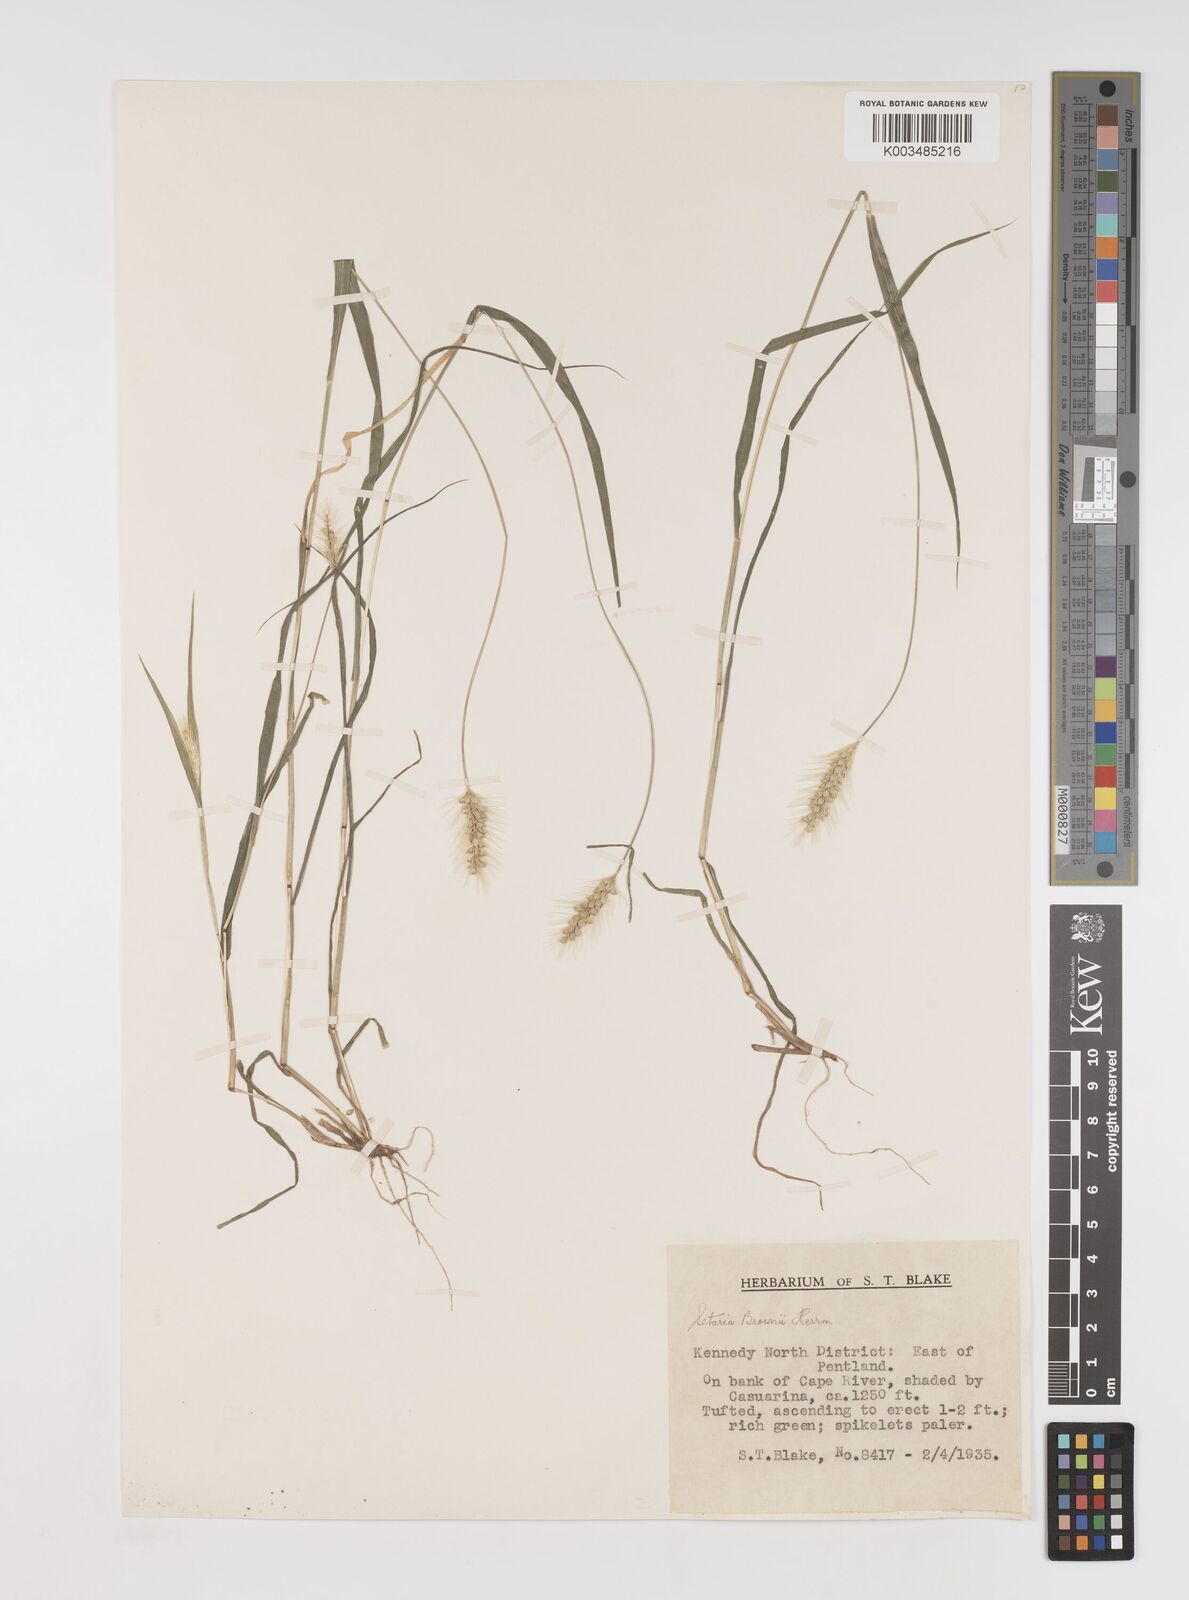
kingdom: Plantae
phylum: Tracheophyta
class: Liliopsida
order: Poales
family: Poaceae
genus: Setaria
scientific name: Setaria surgens
